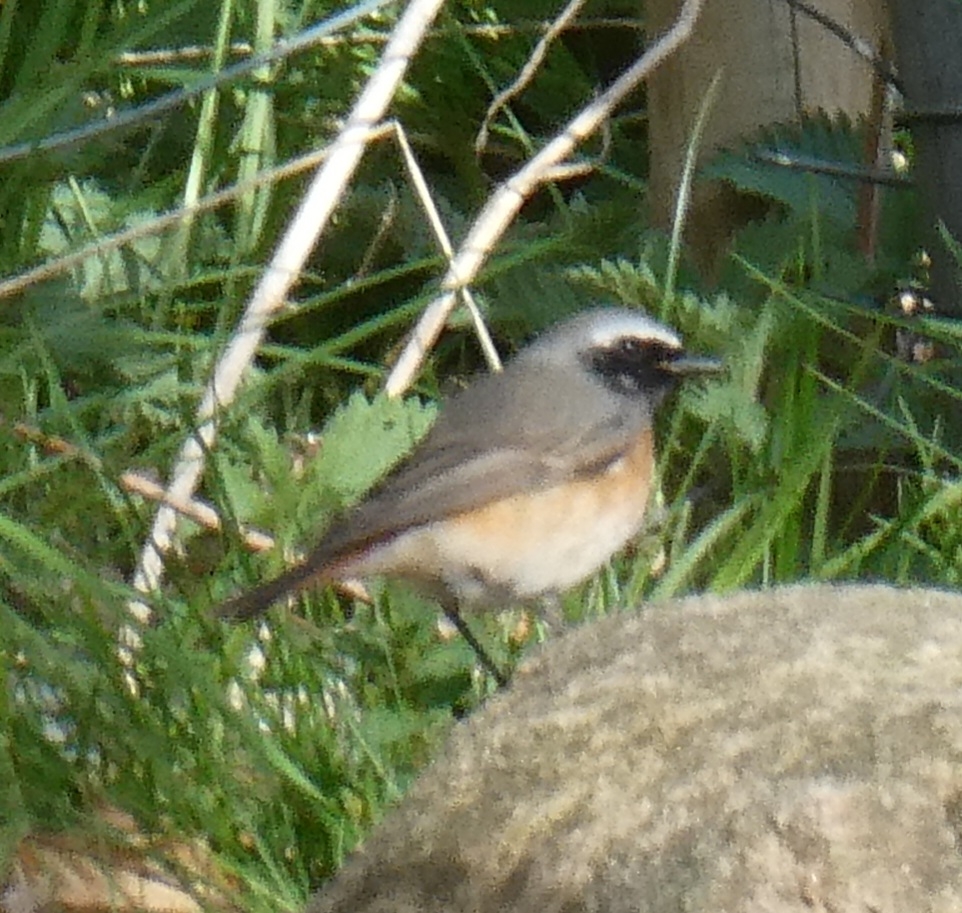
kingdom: Animalia
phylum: Chordata
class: Aves
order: Passeriformes
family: Muscicapidae
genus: Phoenicurus
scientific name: Phoenicurus phoenicurus
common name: Rødstjert
